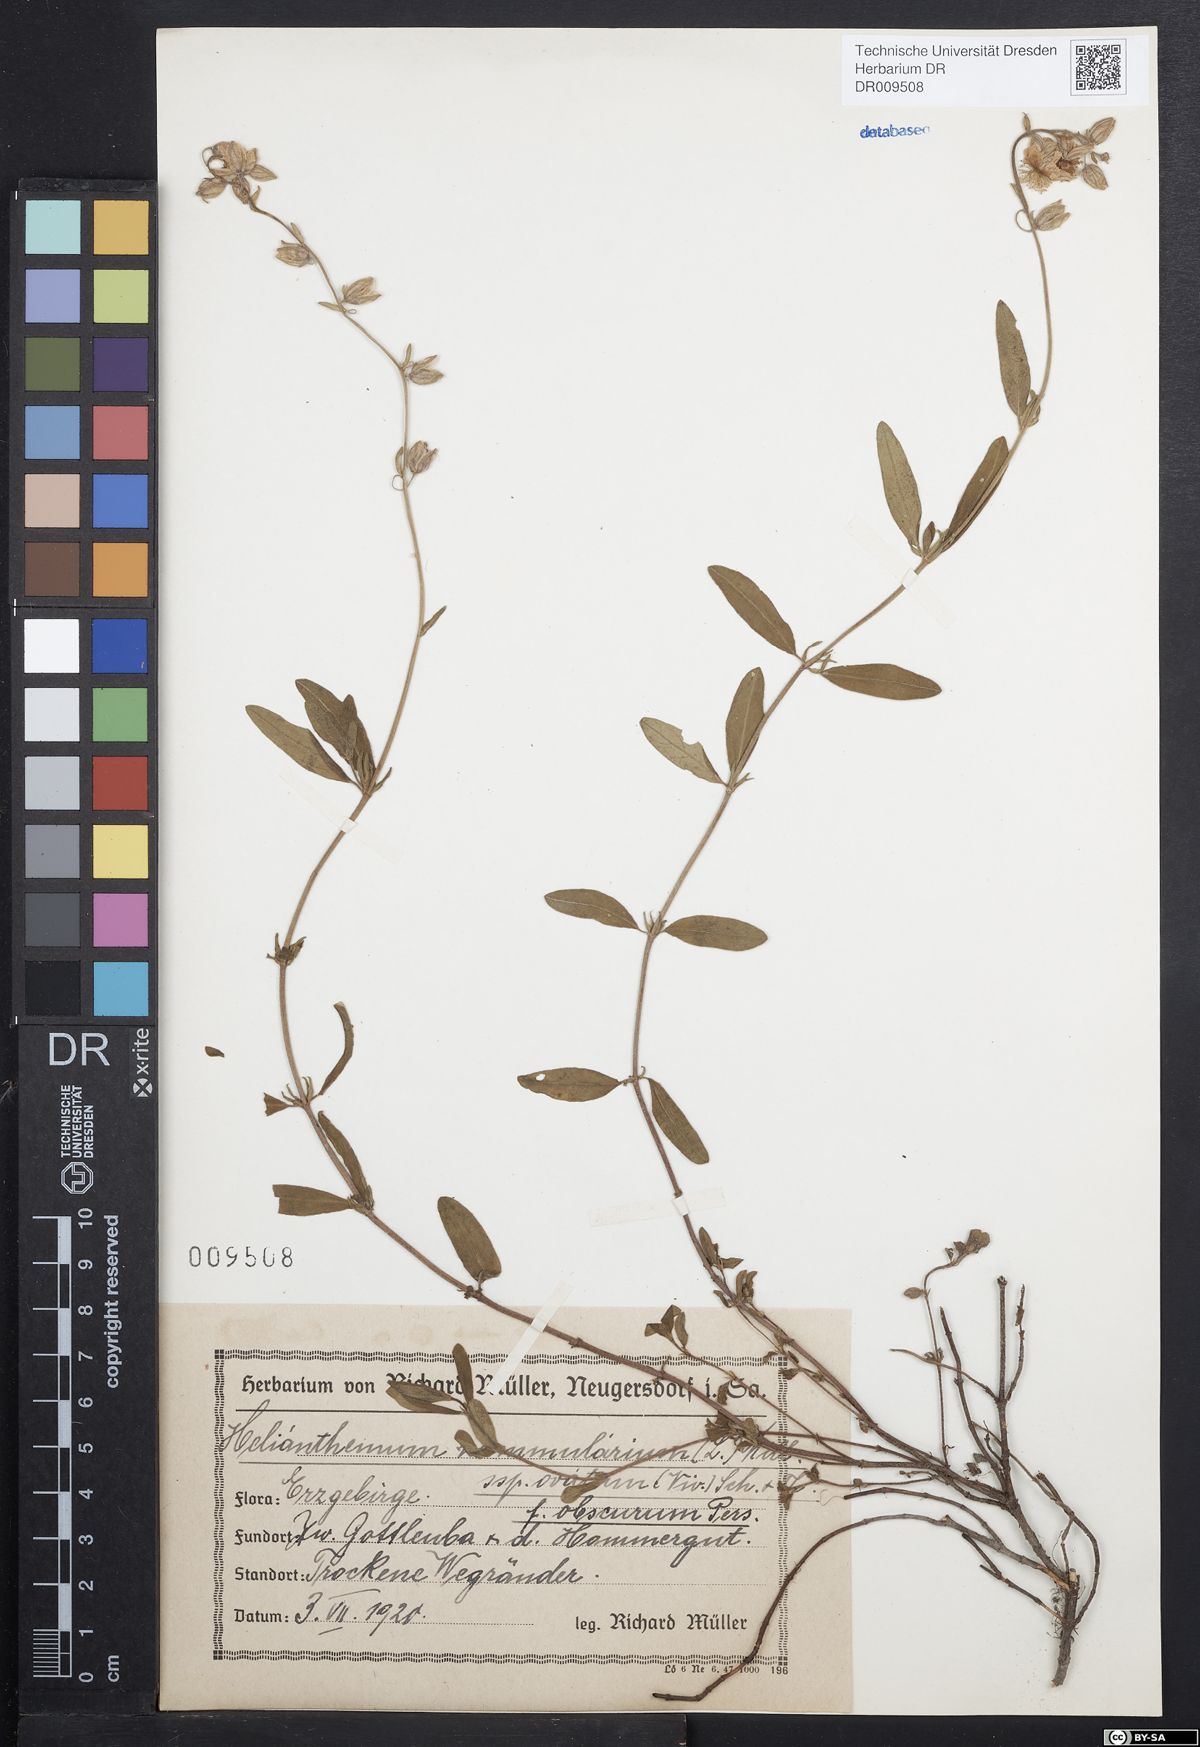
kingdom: Plantae
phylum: Tracheophyta
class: Magnoliopsida
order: Malvales
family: Cistaceae
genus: Helianthemum
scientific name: Helianthemum nummularium
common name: Common rock-rose
